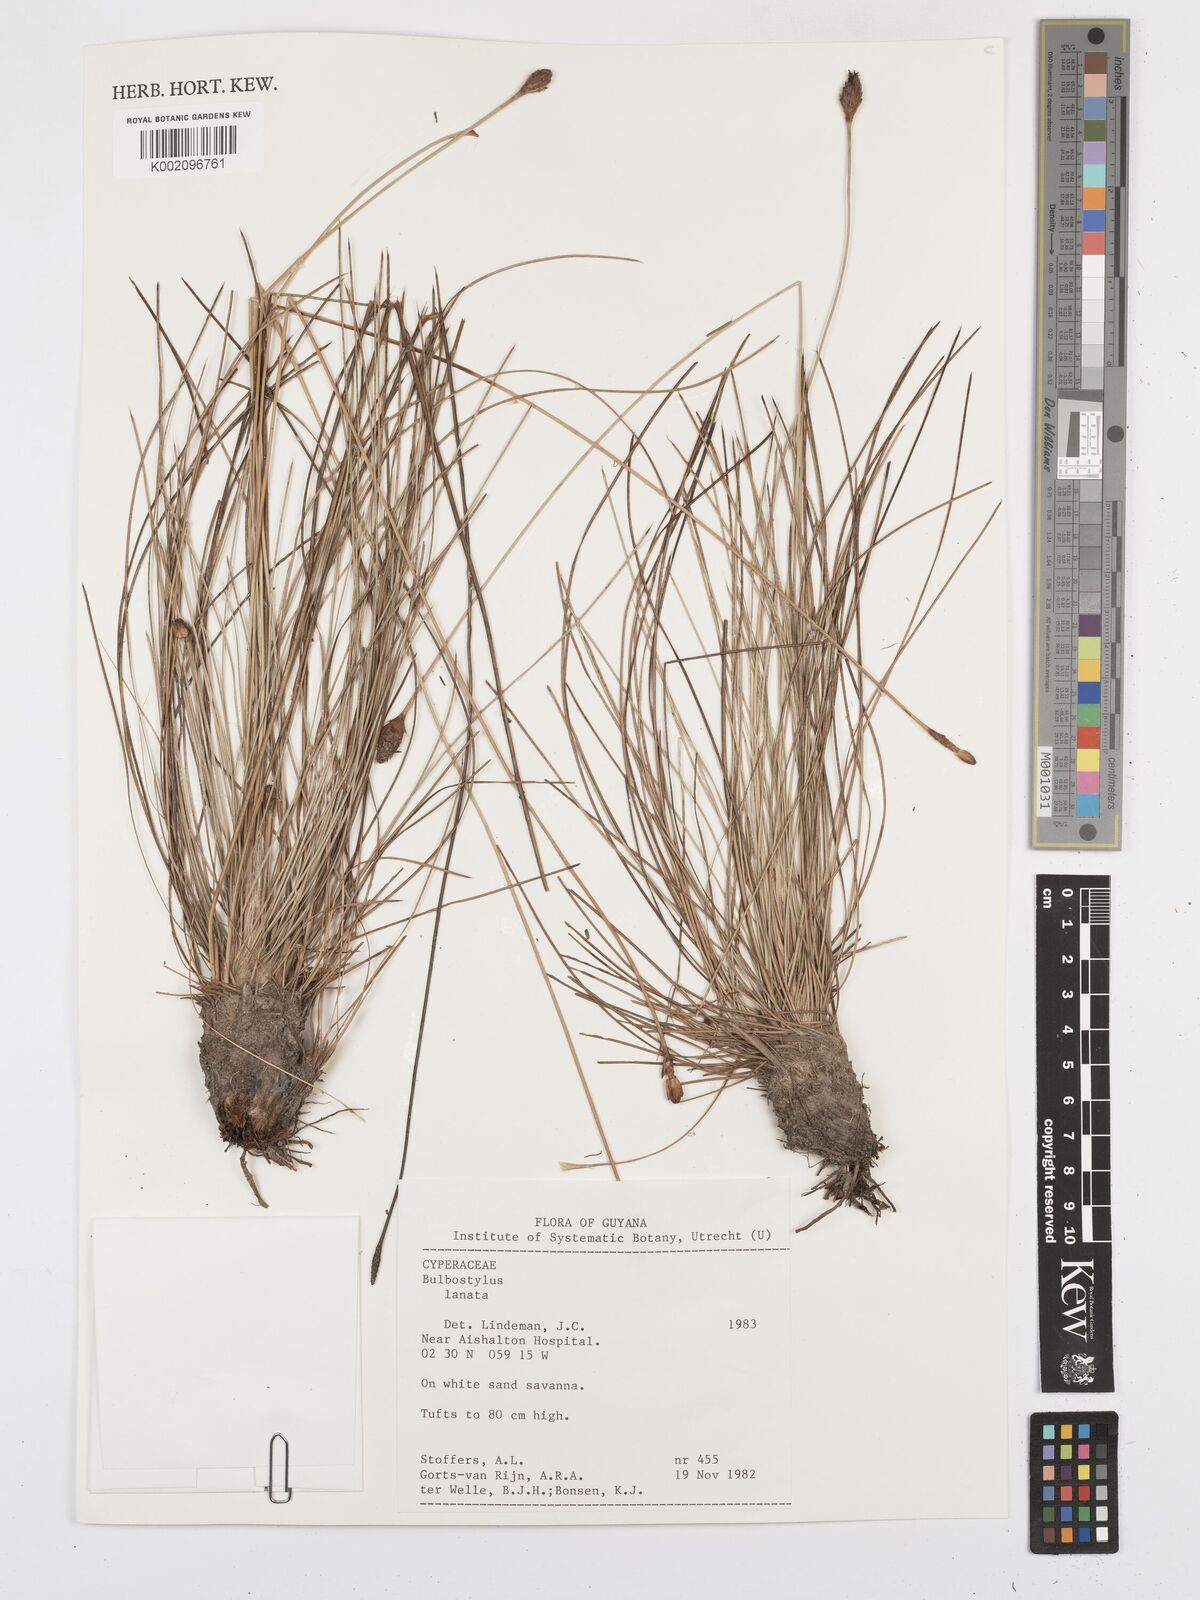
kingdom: Plantae
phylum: Tracheophyta
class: Liliopsida
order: Poales
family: Cyperaceae
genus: Bulbostylis
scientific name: Bulbostylis
